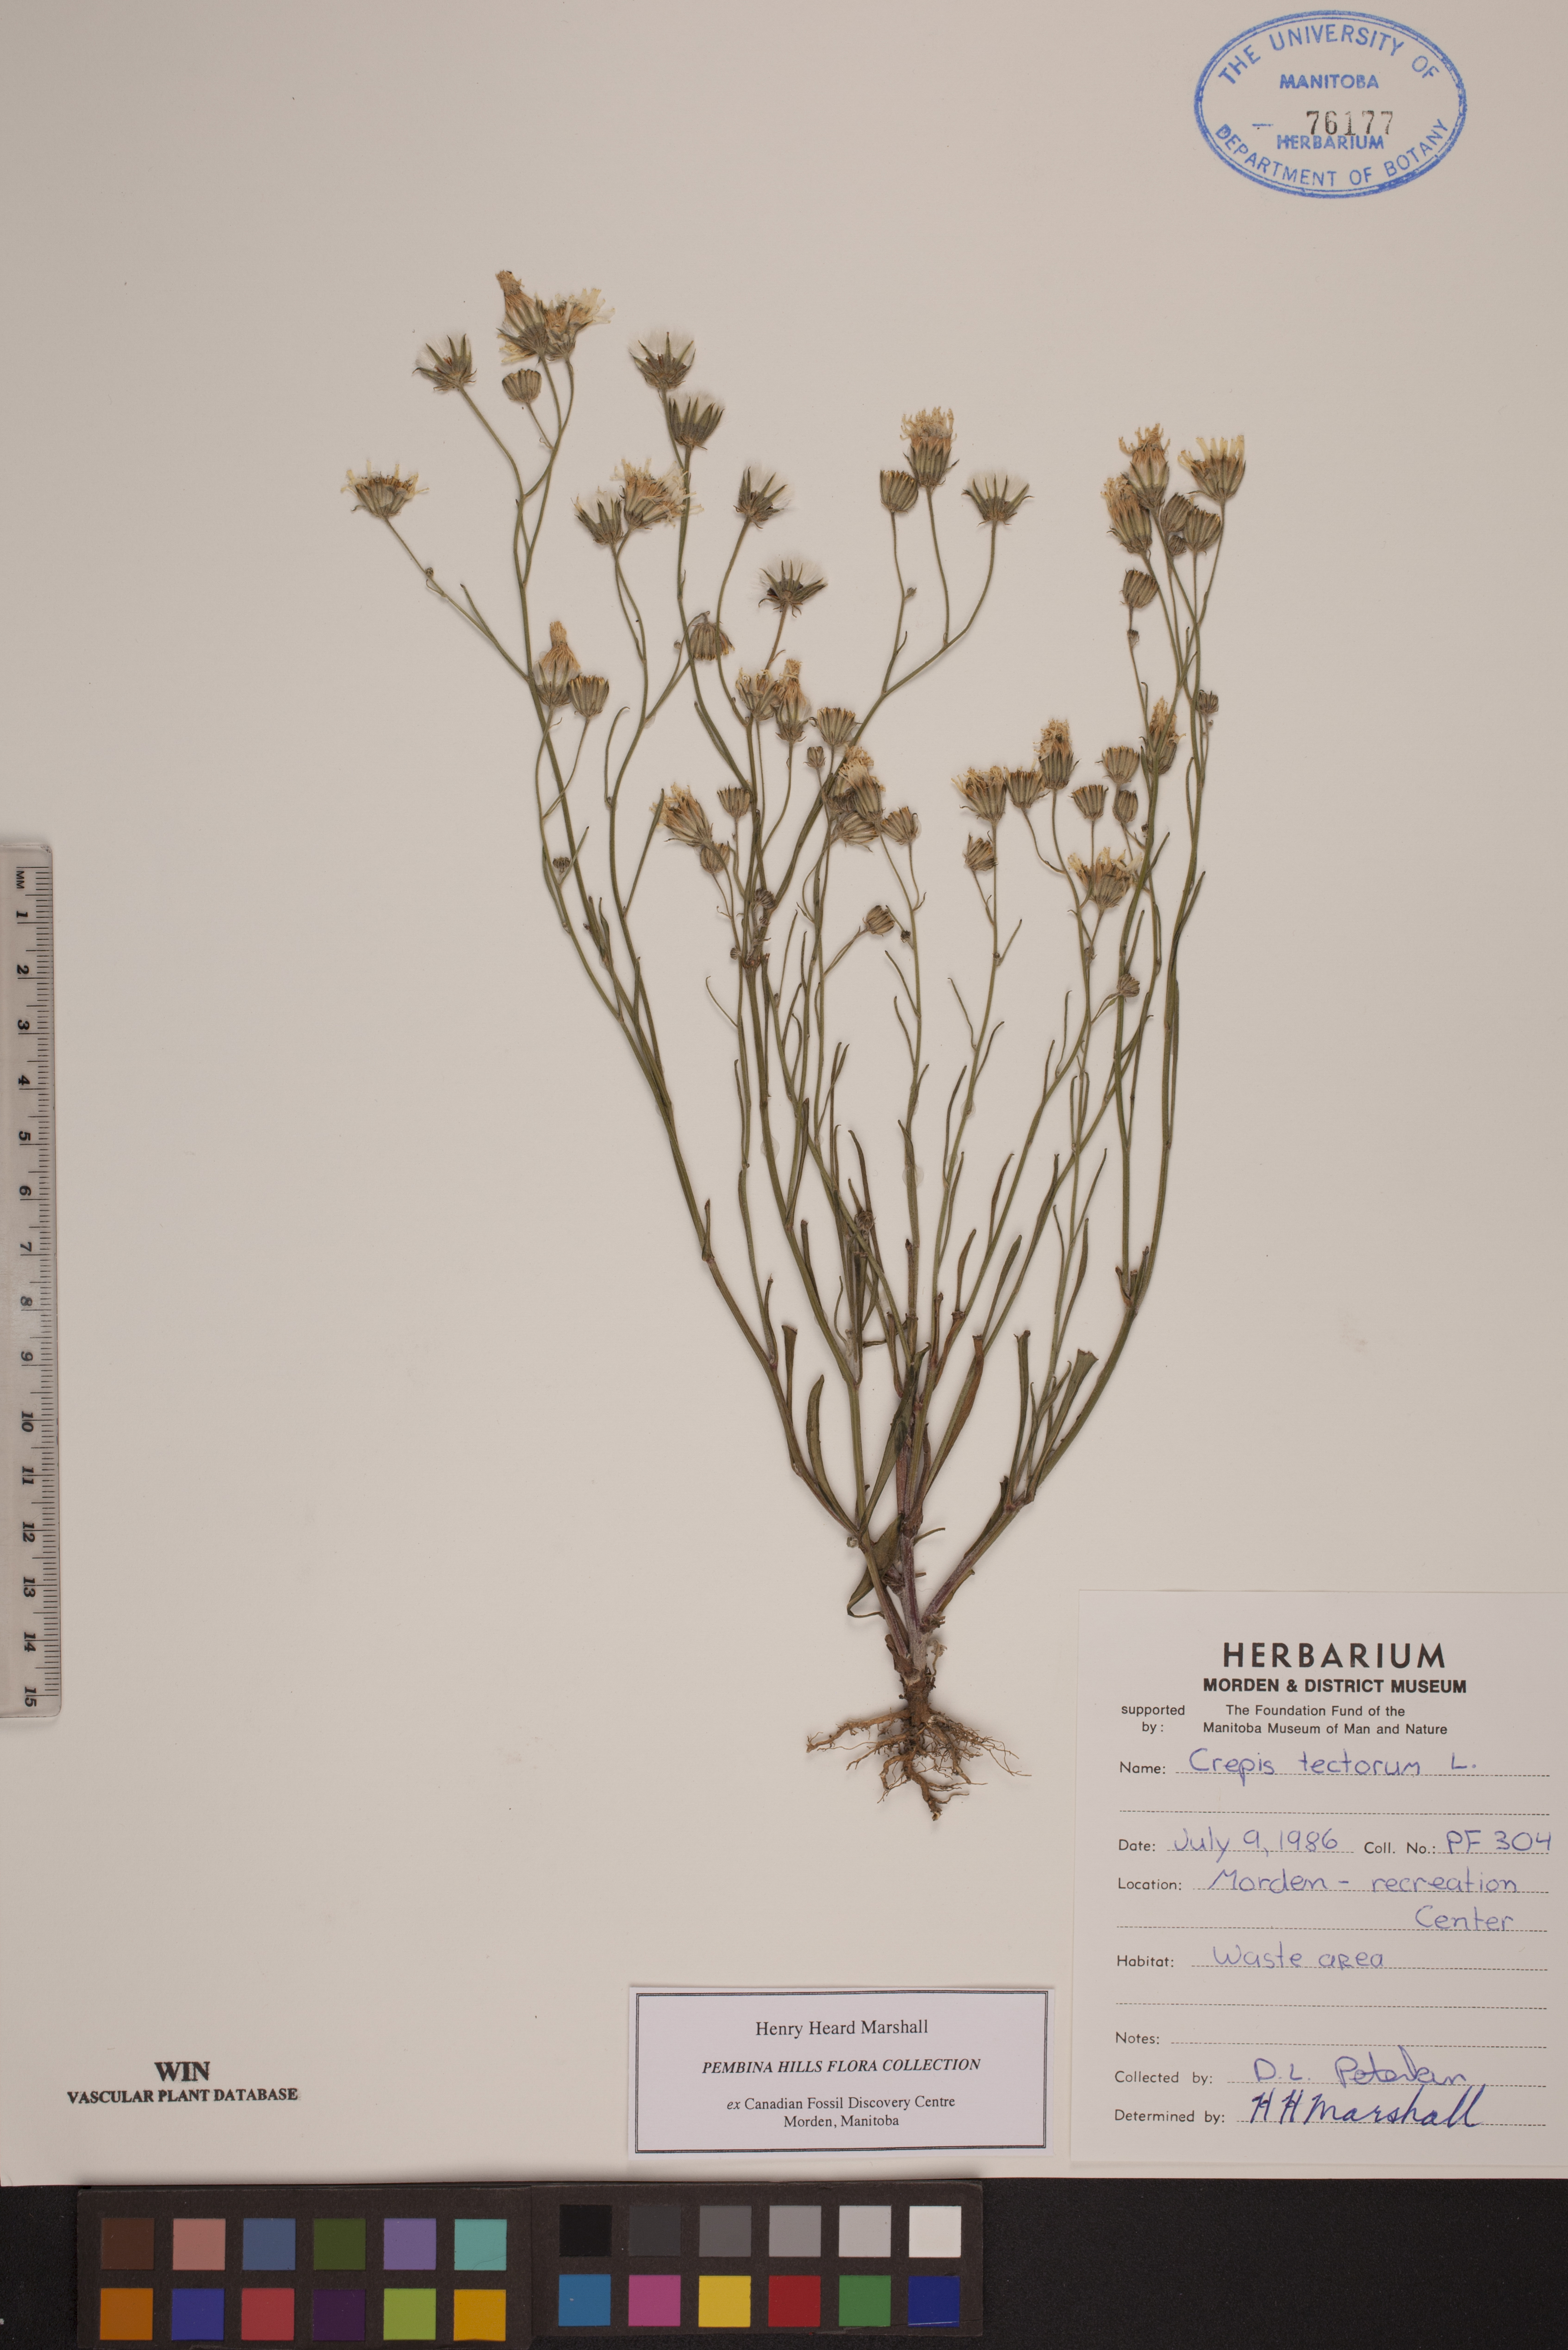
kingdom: Plantae
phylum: Tracheophyta
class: Magnoliopsida
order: Asterales
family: Asteraceae
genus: Crepis
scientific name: Crepis tectorum
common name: Narrow-leaved hawk's-beard
